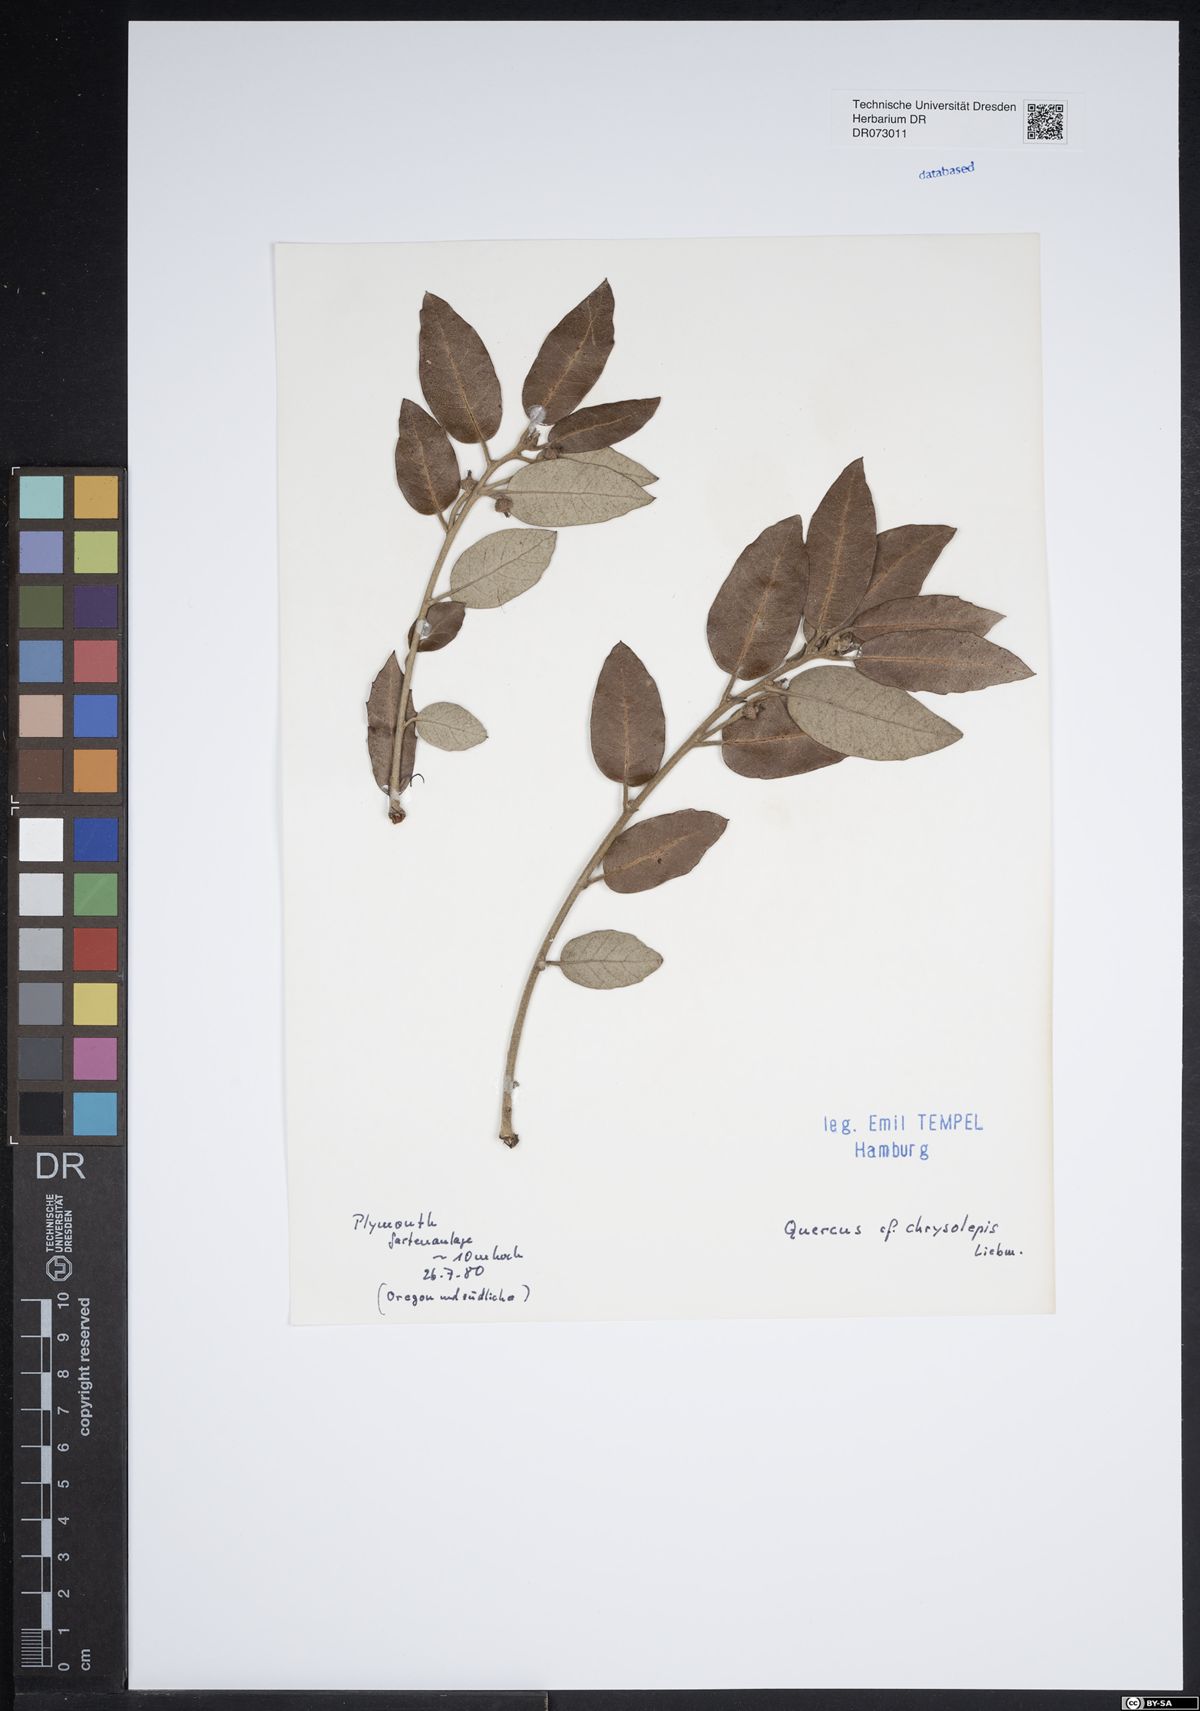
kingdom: Plantae
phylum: Tracheophyta
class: Magnoliopsida
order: Fagales
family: Fagaceae
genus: Quercus
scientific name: Quercus chrysolepis
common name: Canyon live oak
